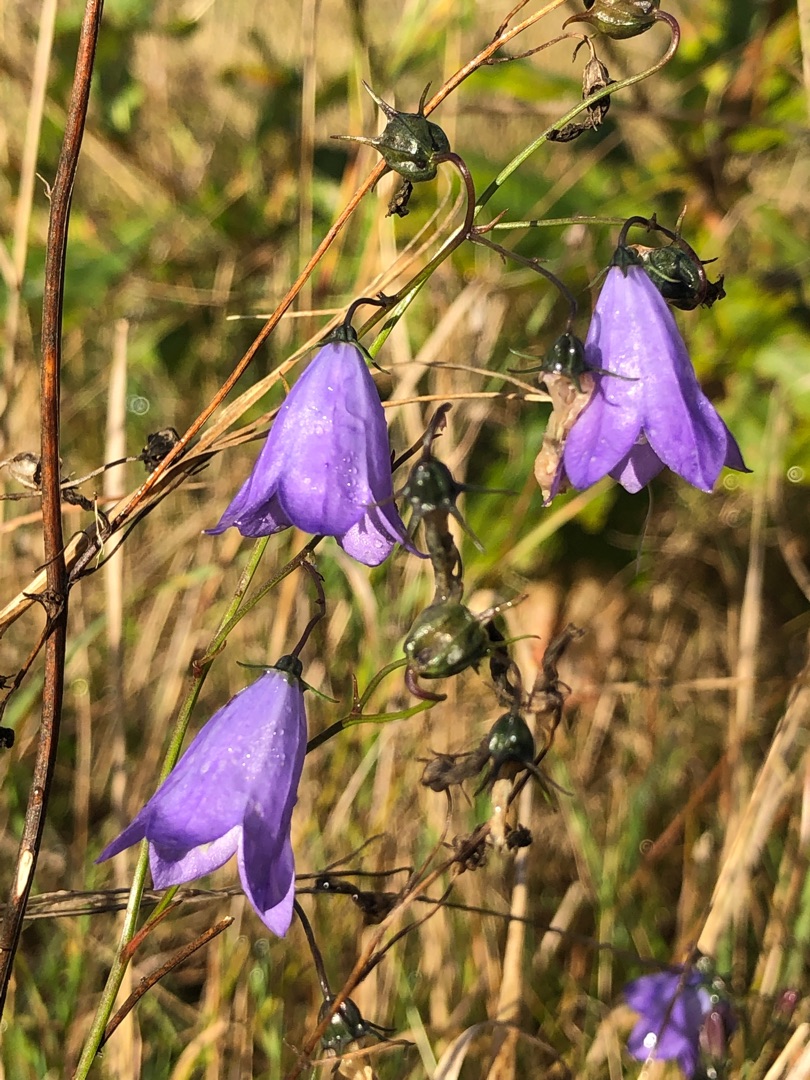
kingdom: Plantae
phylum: Tracheophyta
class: Magnoliopsida
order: Asterales
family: Campanulaceae
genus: Campanula
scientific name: Campanula rotundifolia
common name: Liden klokke
